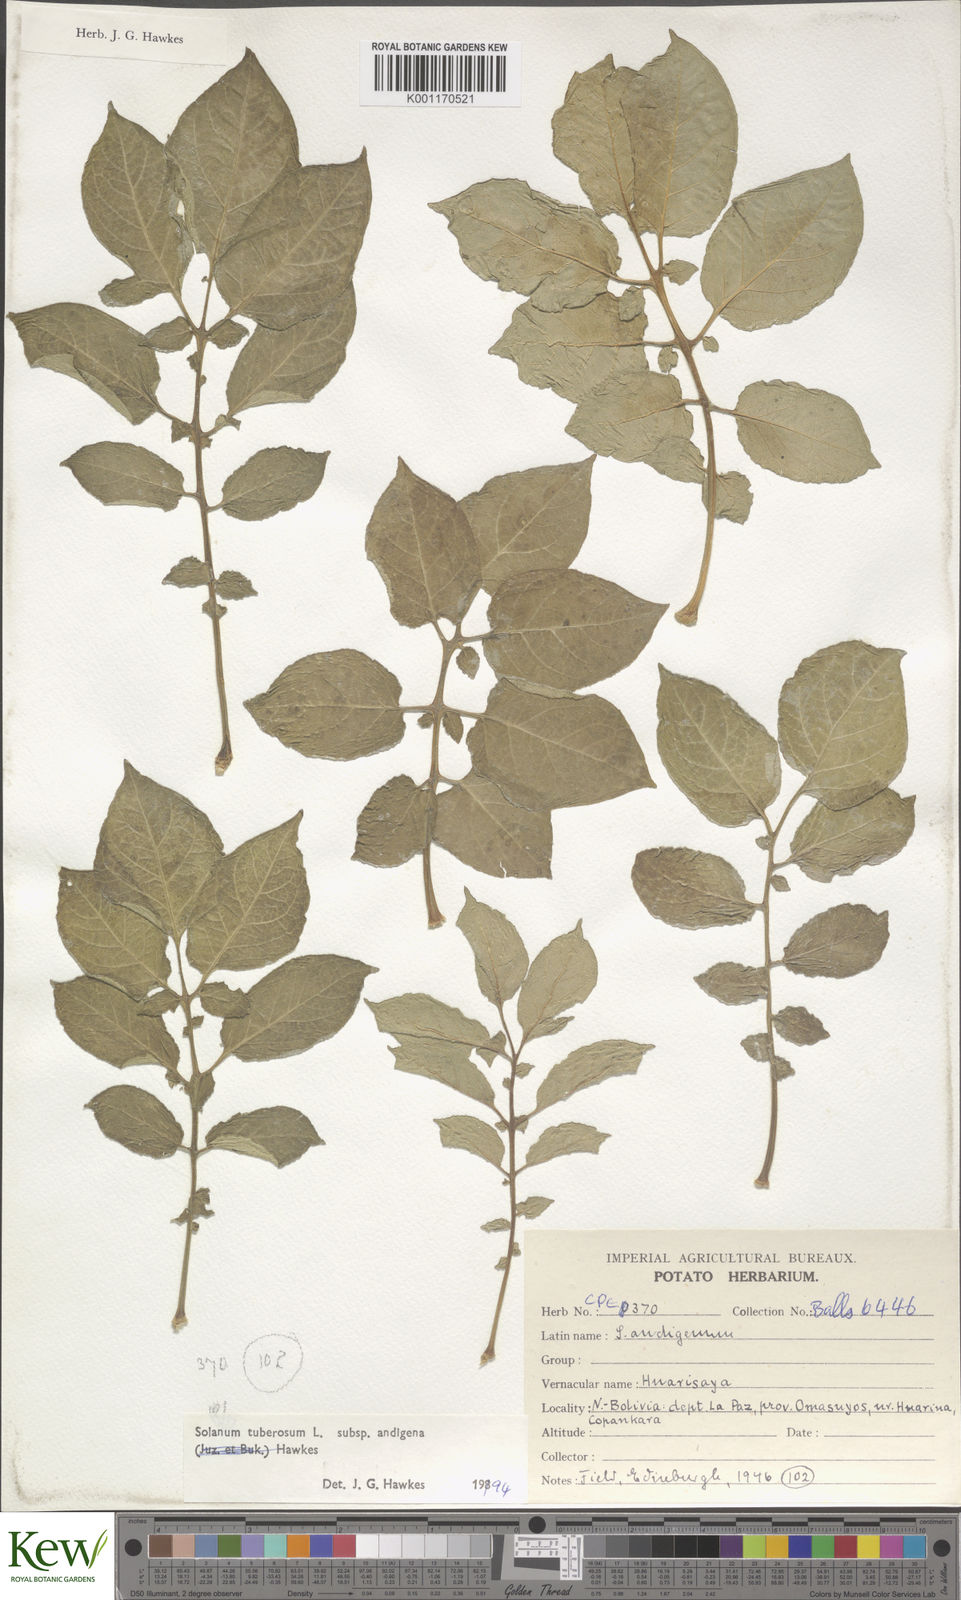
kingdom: Plantae
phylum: Tracheophyta
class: Magnoliopsida
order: Solanales
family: Solanaceae
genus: Solanum
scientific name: Solanum tuberosum
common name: Potato
